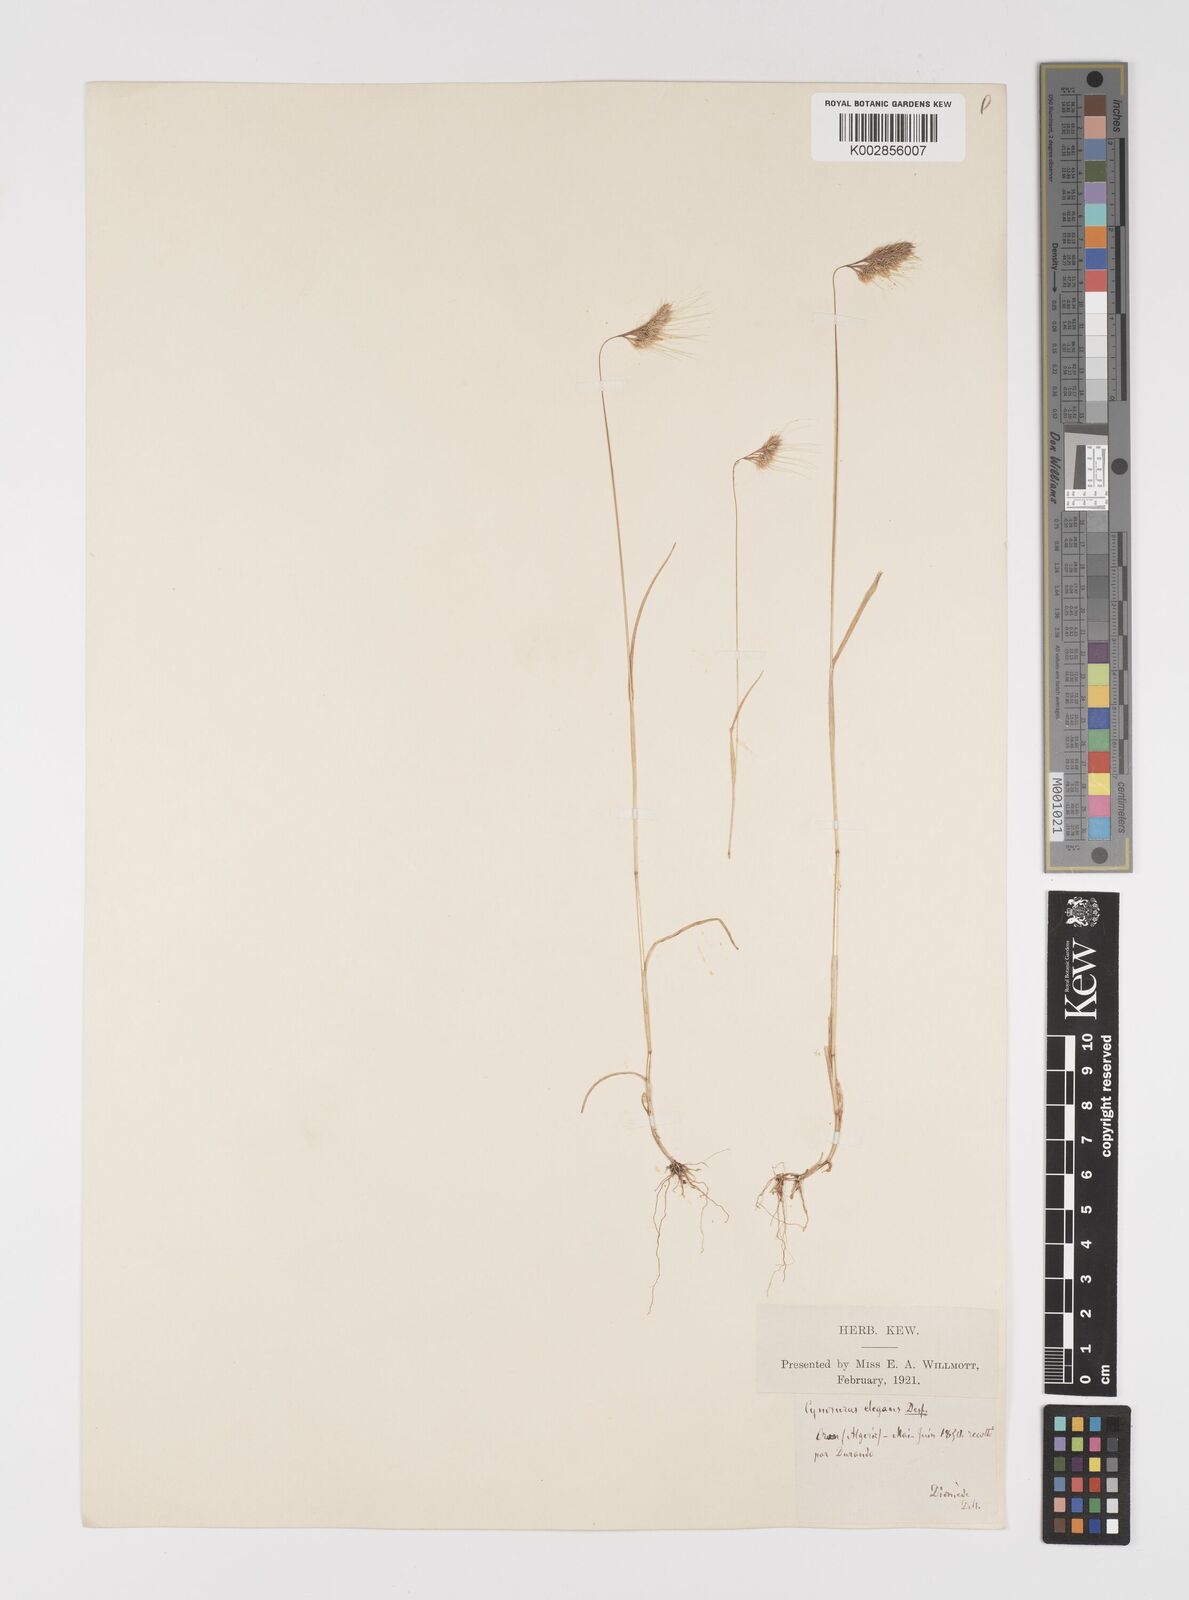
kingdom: Plantae
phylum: Tracheophyta
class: Liliopsida
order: Poales
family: Poaceae
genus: Cynosurus
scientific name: Cynosurus elegans
